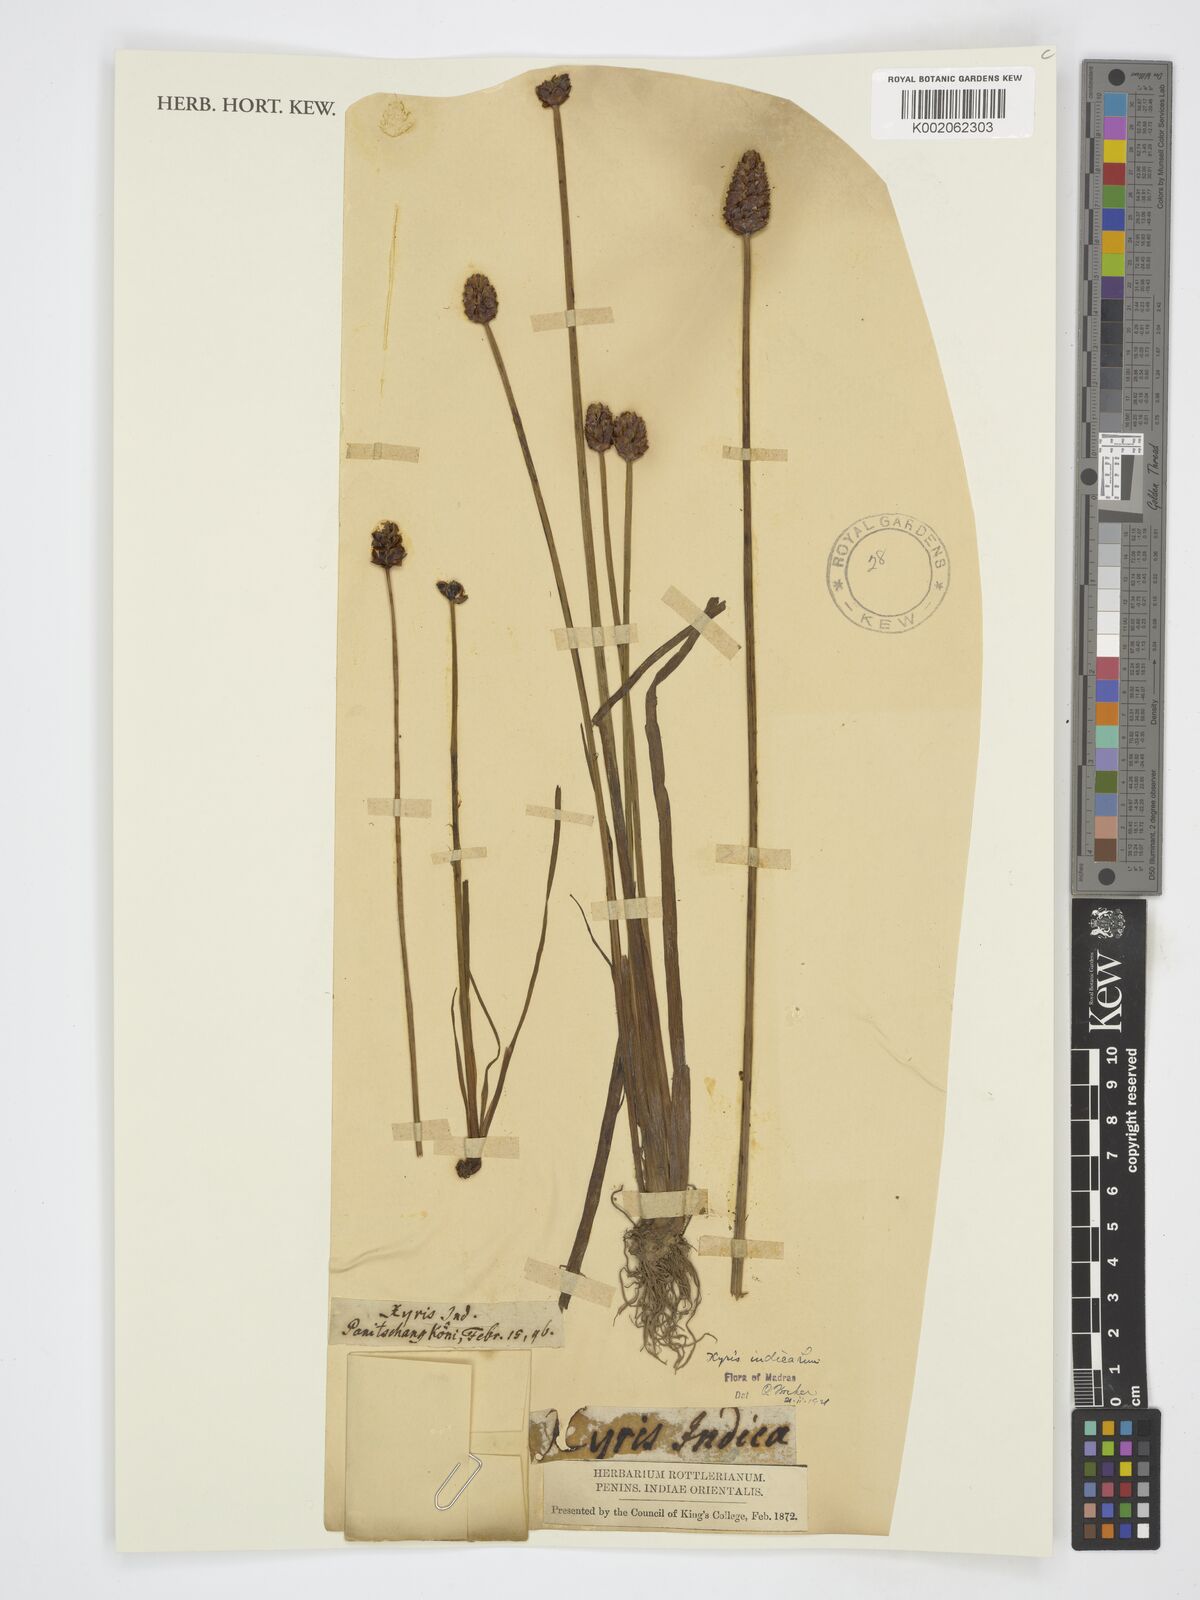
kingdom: Plantae
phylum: Tracheophyta
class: Liliopsida
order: Poales
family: Xyridaceae
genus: Xyris
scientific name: Xyris indica
